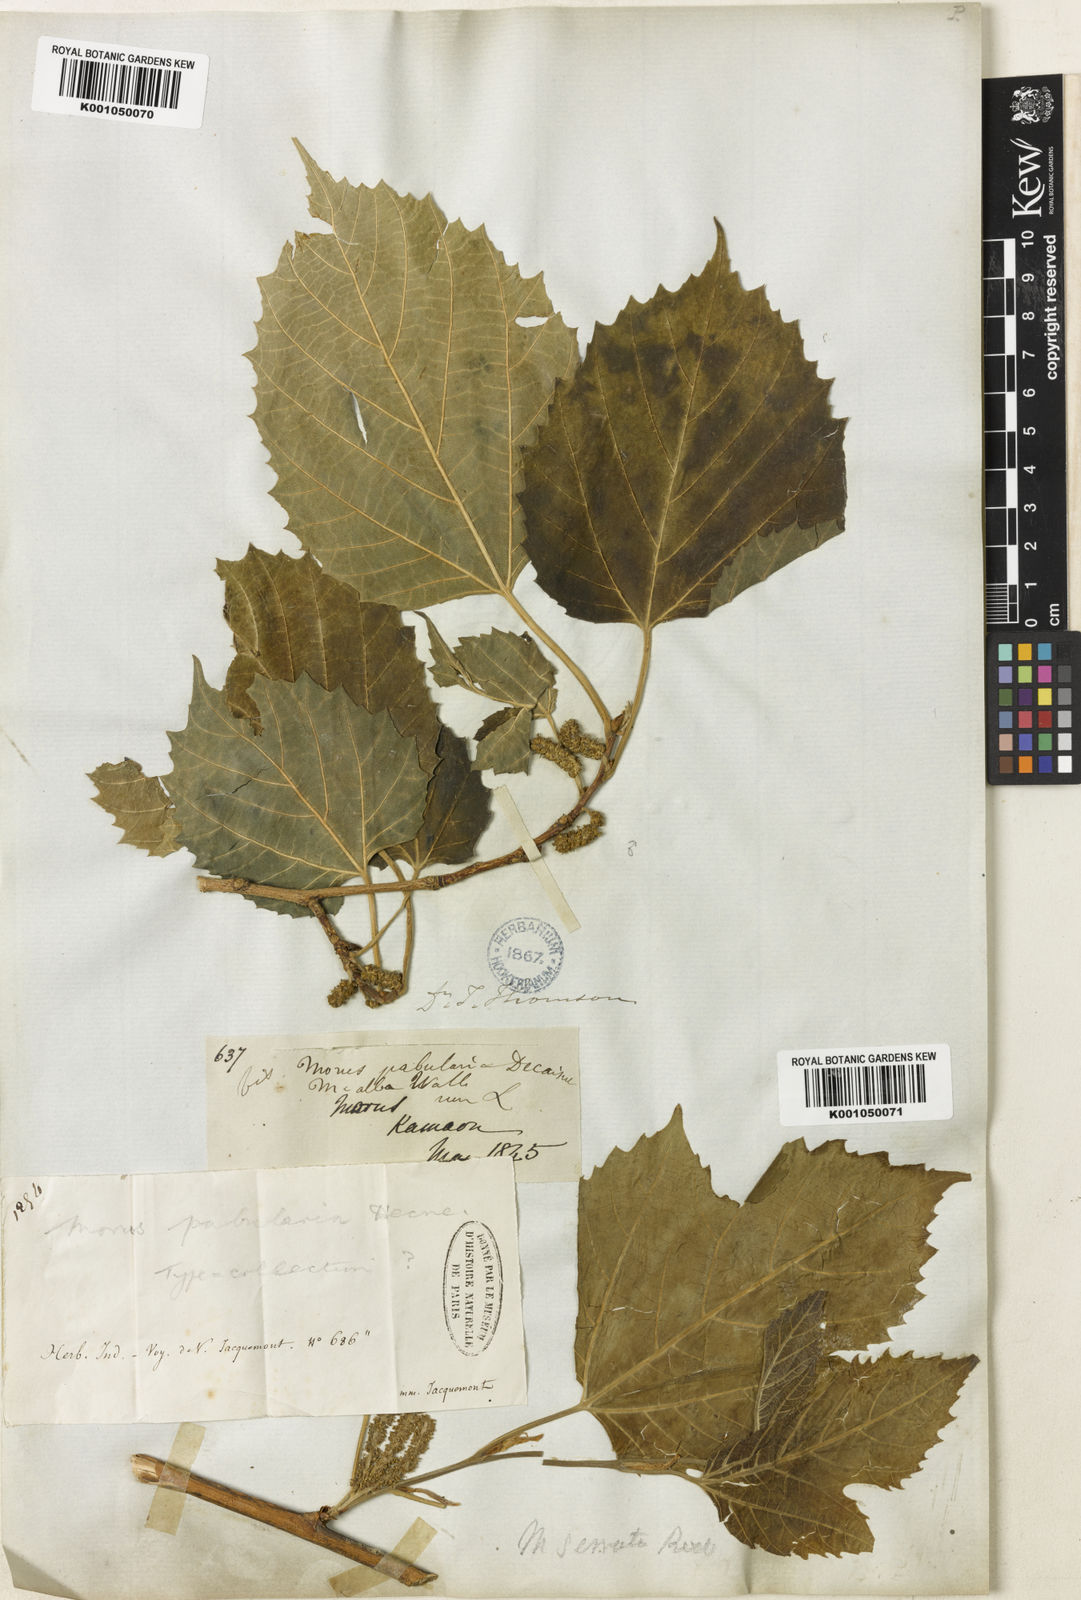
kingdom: Plantae
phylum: Tracheophyta
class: Magnoliopsida
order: Rosales
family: Moraceae
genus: Morus
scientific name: Morus serrata
